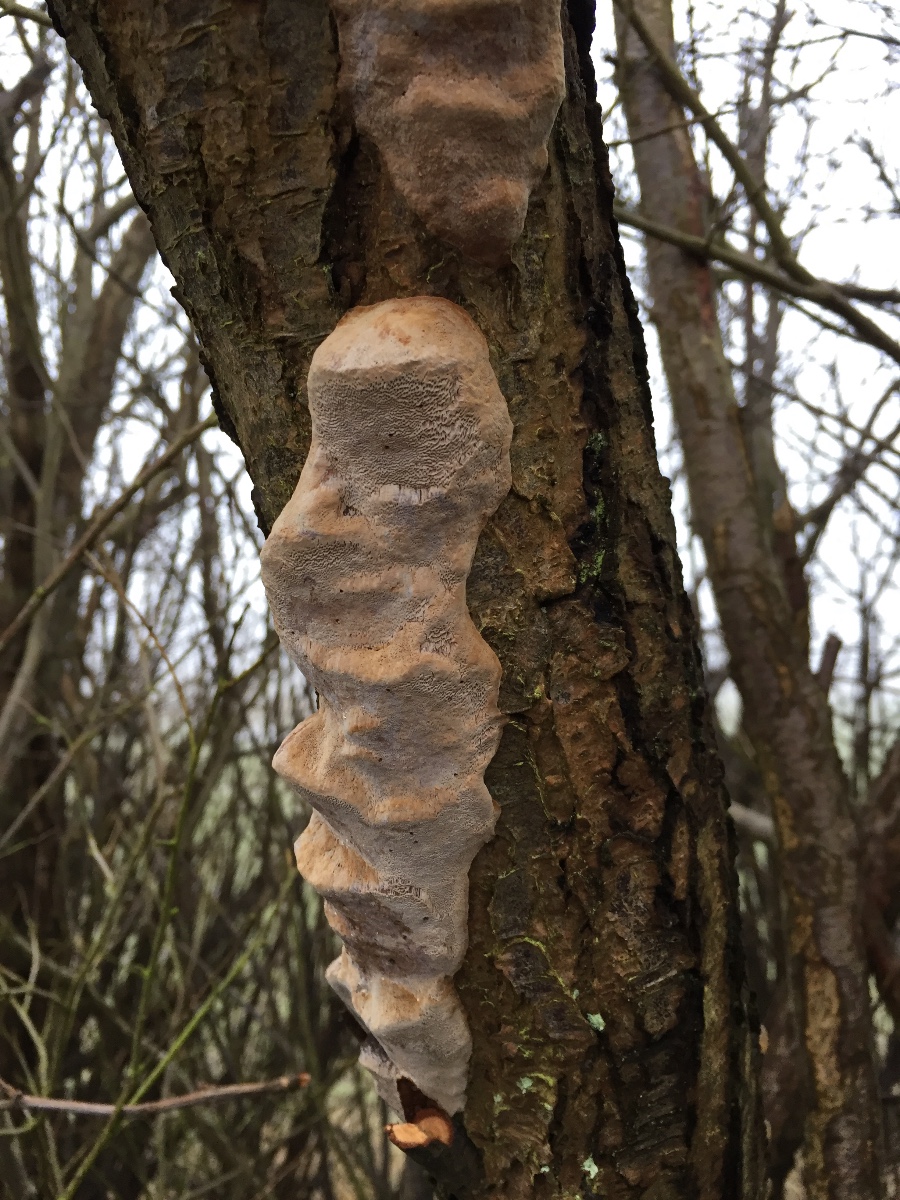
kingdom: Fungi
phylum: Basidiomycota
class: Agaricomycetes
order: Hymenochaetales
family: Hymenochaetaceae
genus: Phellinus
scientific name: Phellinus pomaceus
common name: blomme-ildporesvamp
